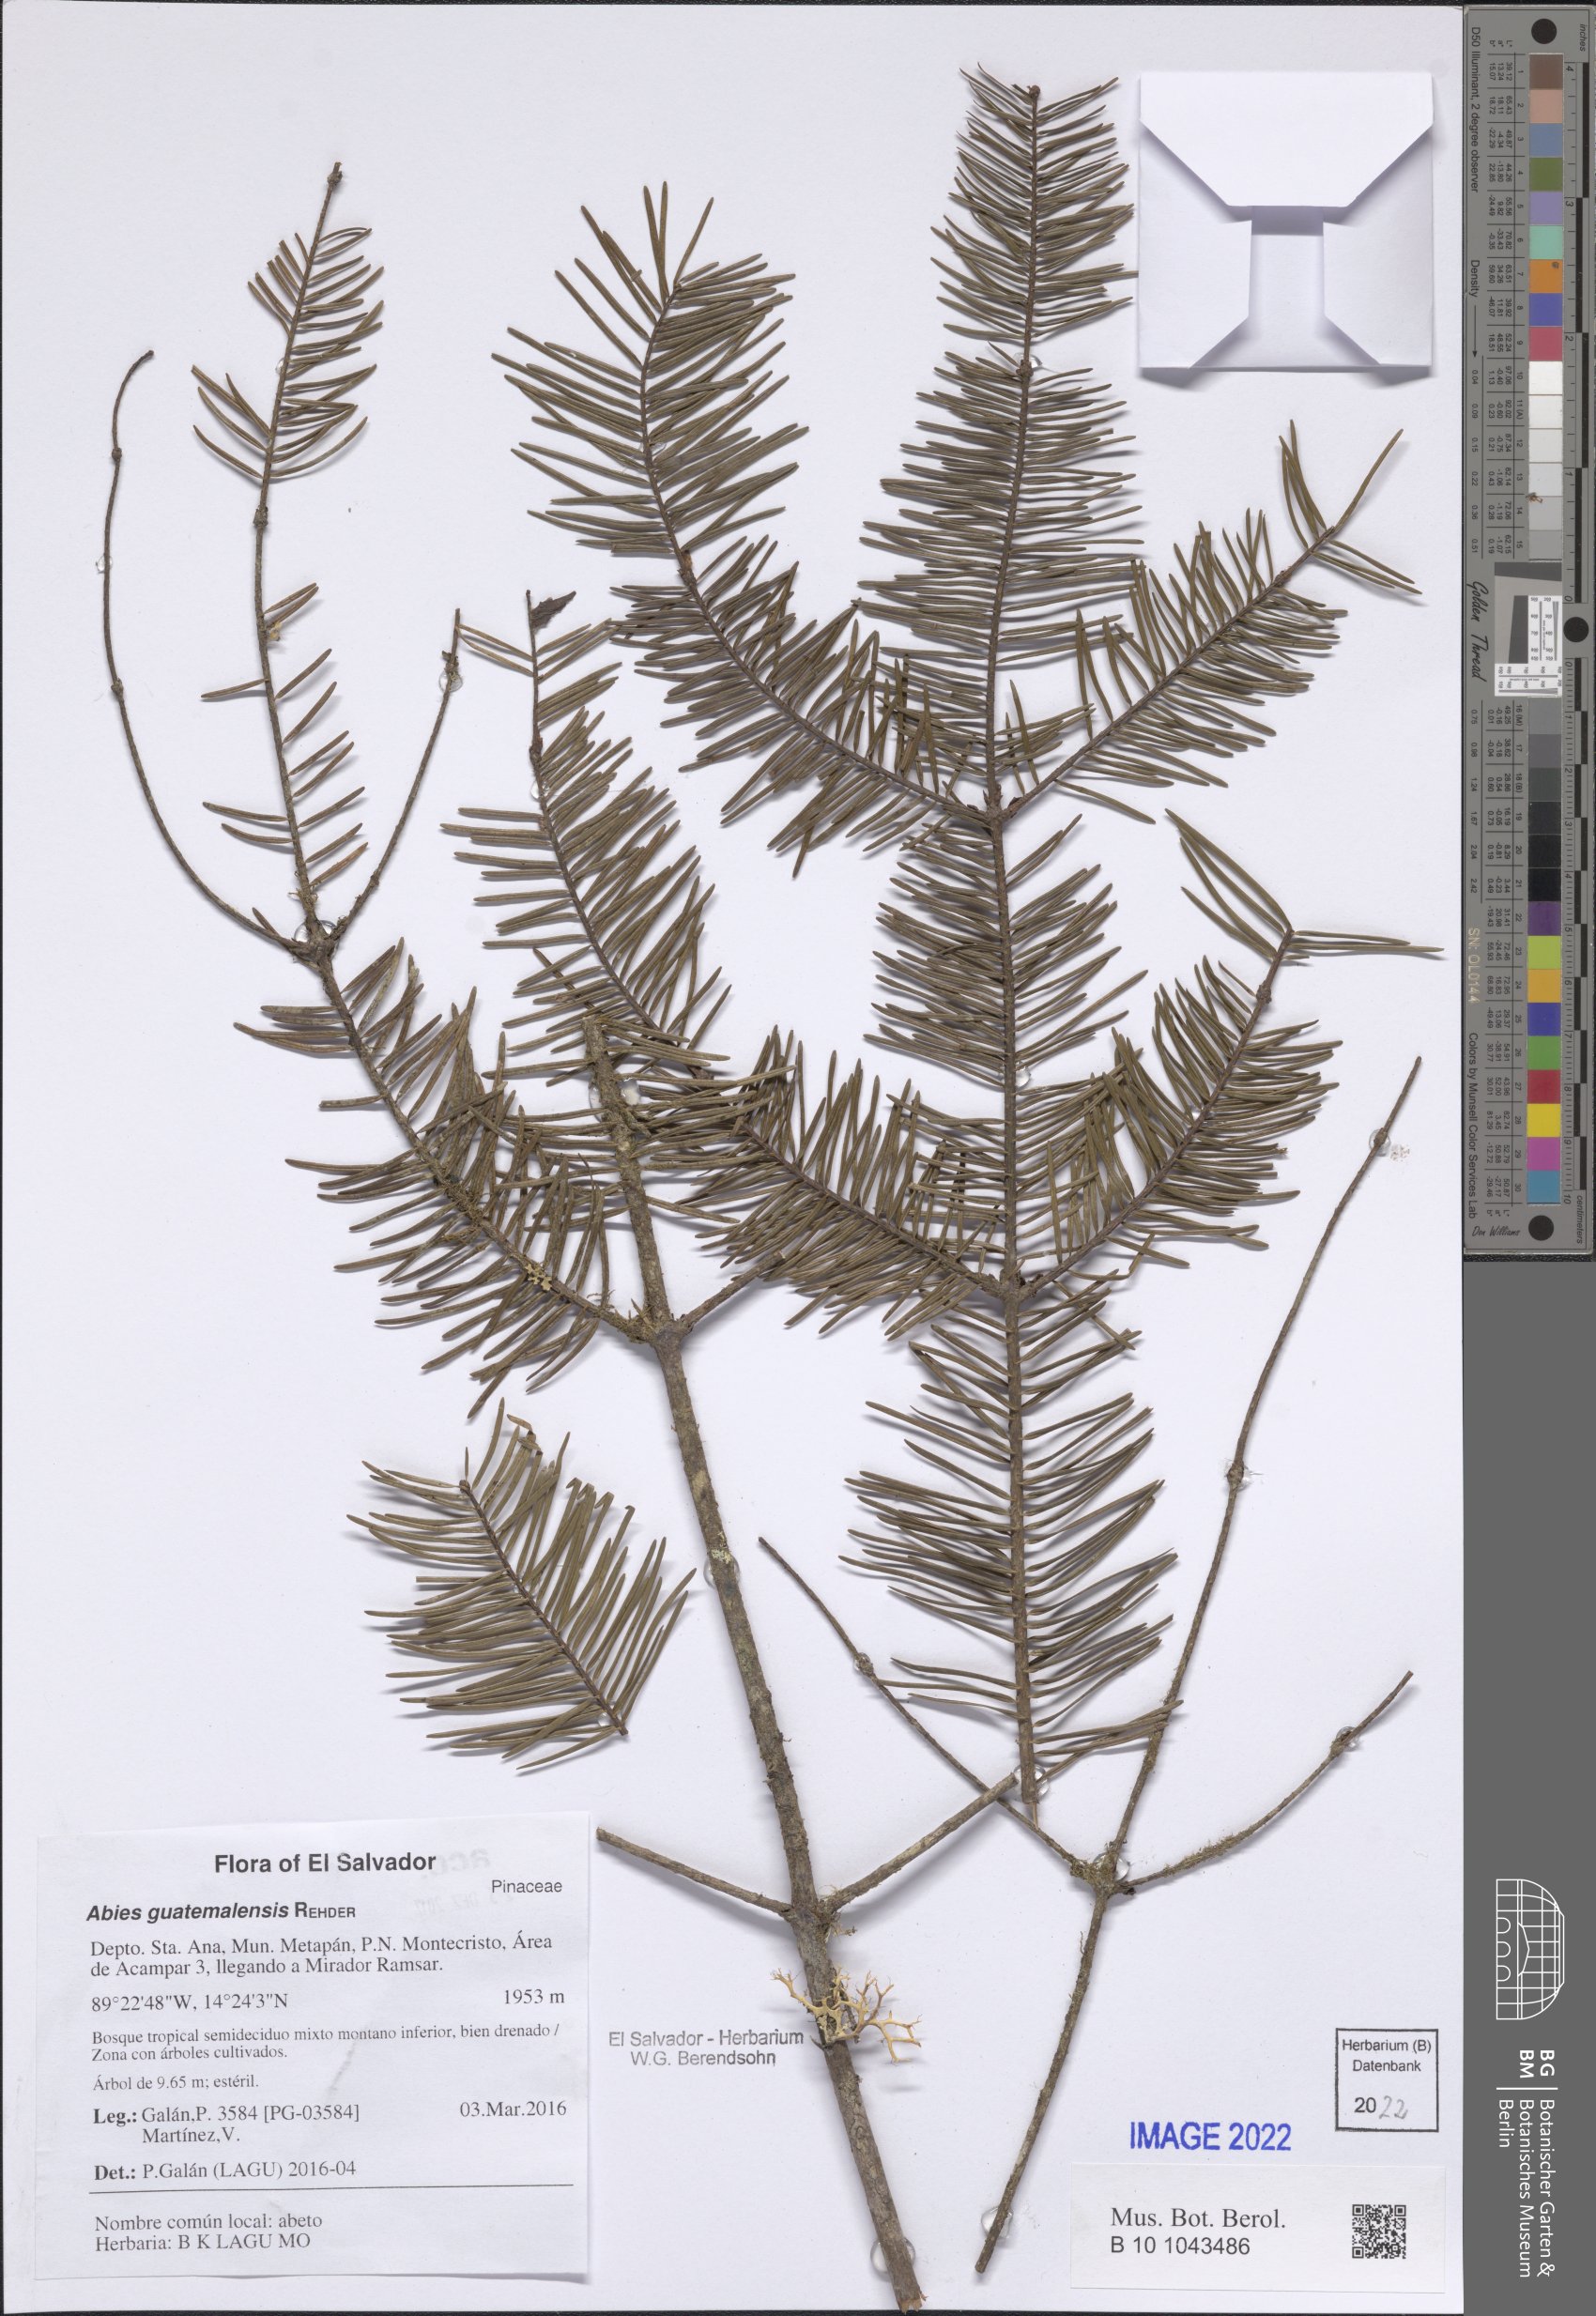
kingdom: Plantae
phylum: Tracheophyta
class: Pinopsida
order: Pinales
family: Pinaceae
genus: Abies
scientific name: Abies guatemalensis
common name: Guatemalan fir
